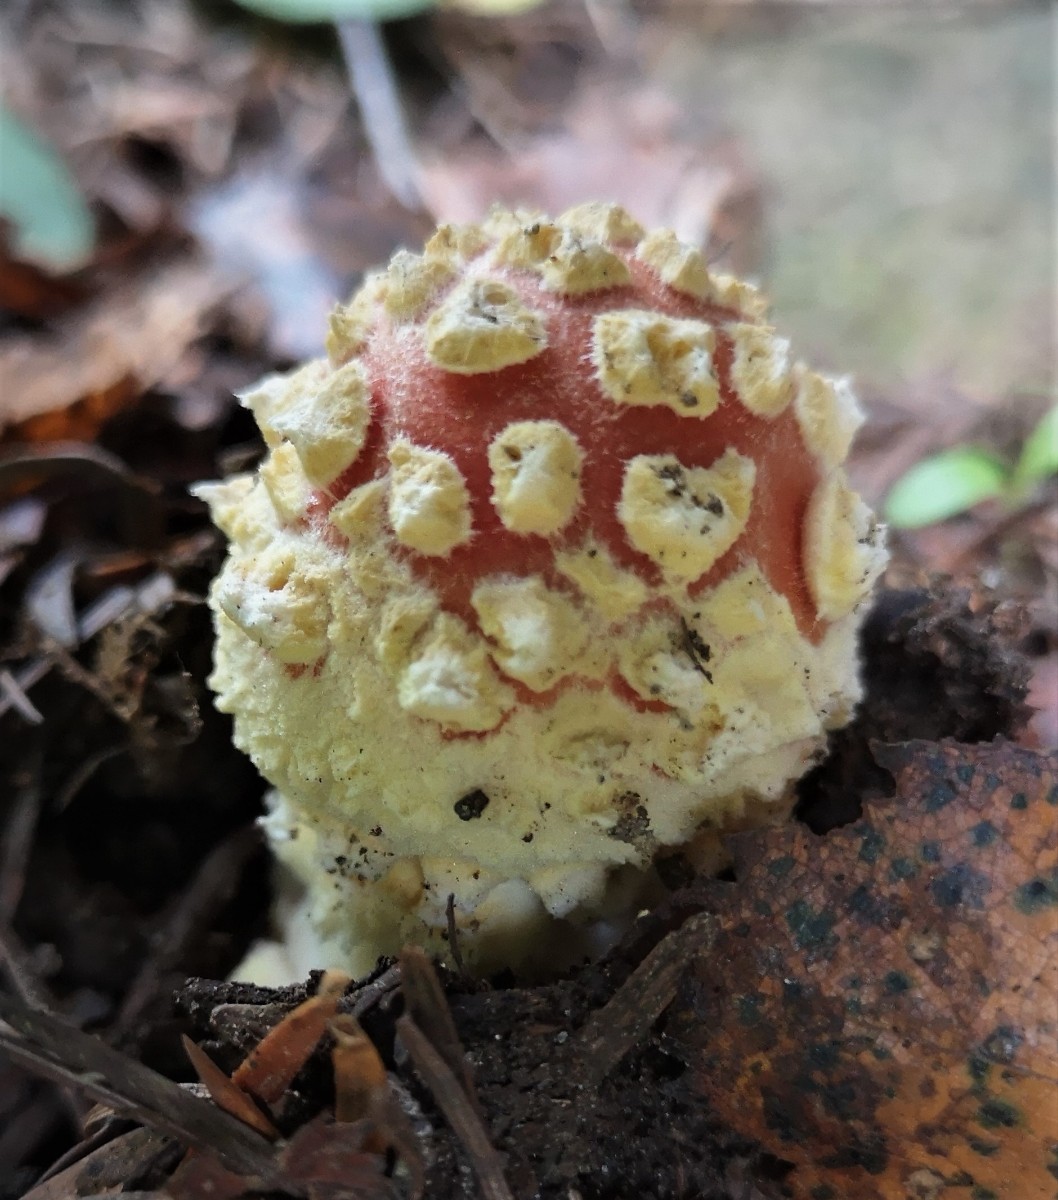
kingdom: Fungi
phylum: Basidiomycota
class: Agaricomycetes
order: Agaricales
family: Amanitaceae
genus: Amanita
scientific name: Amanita muscaria
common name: rød fluesvamp
